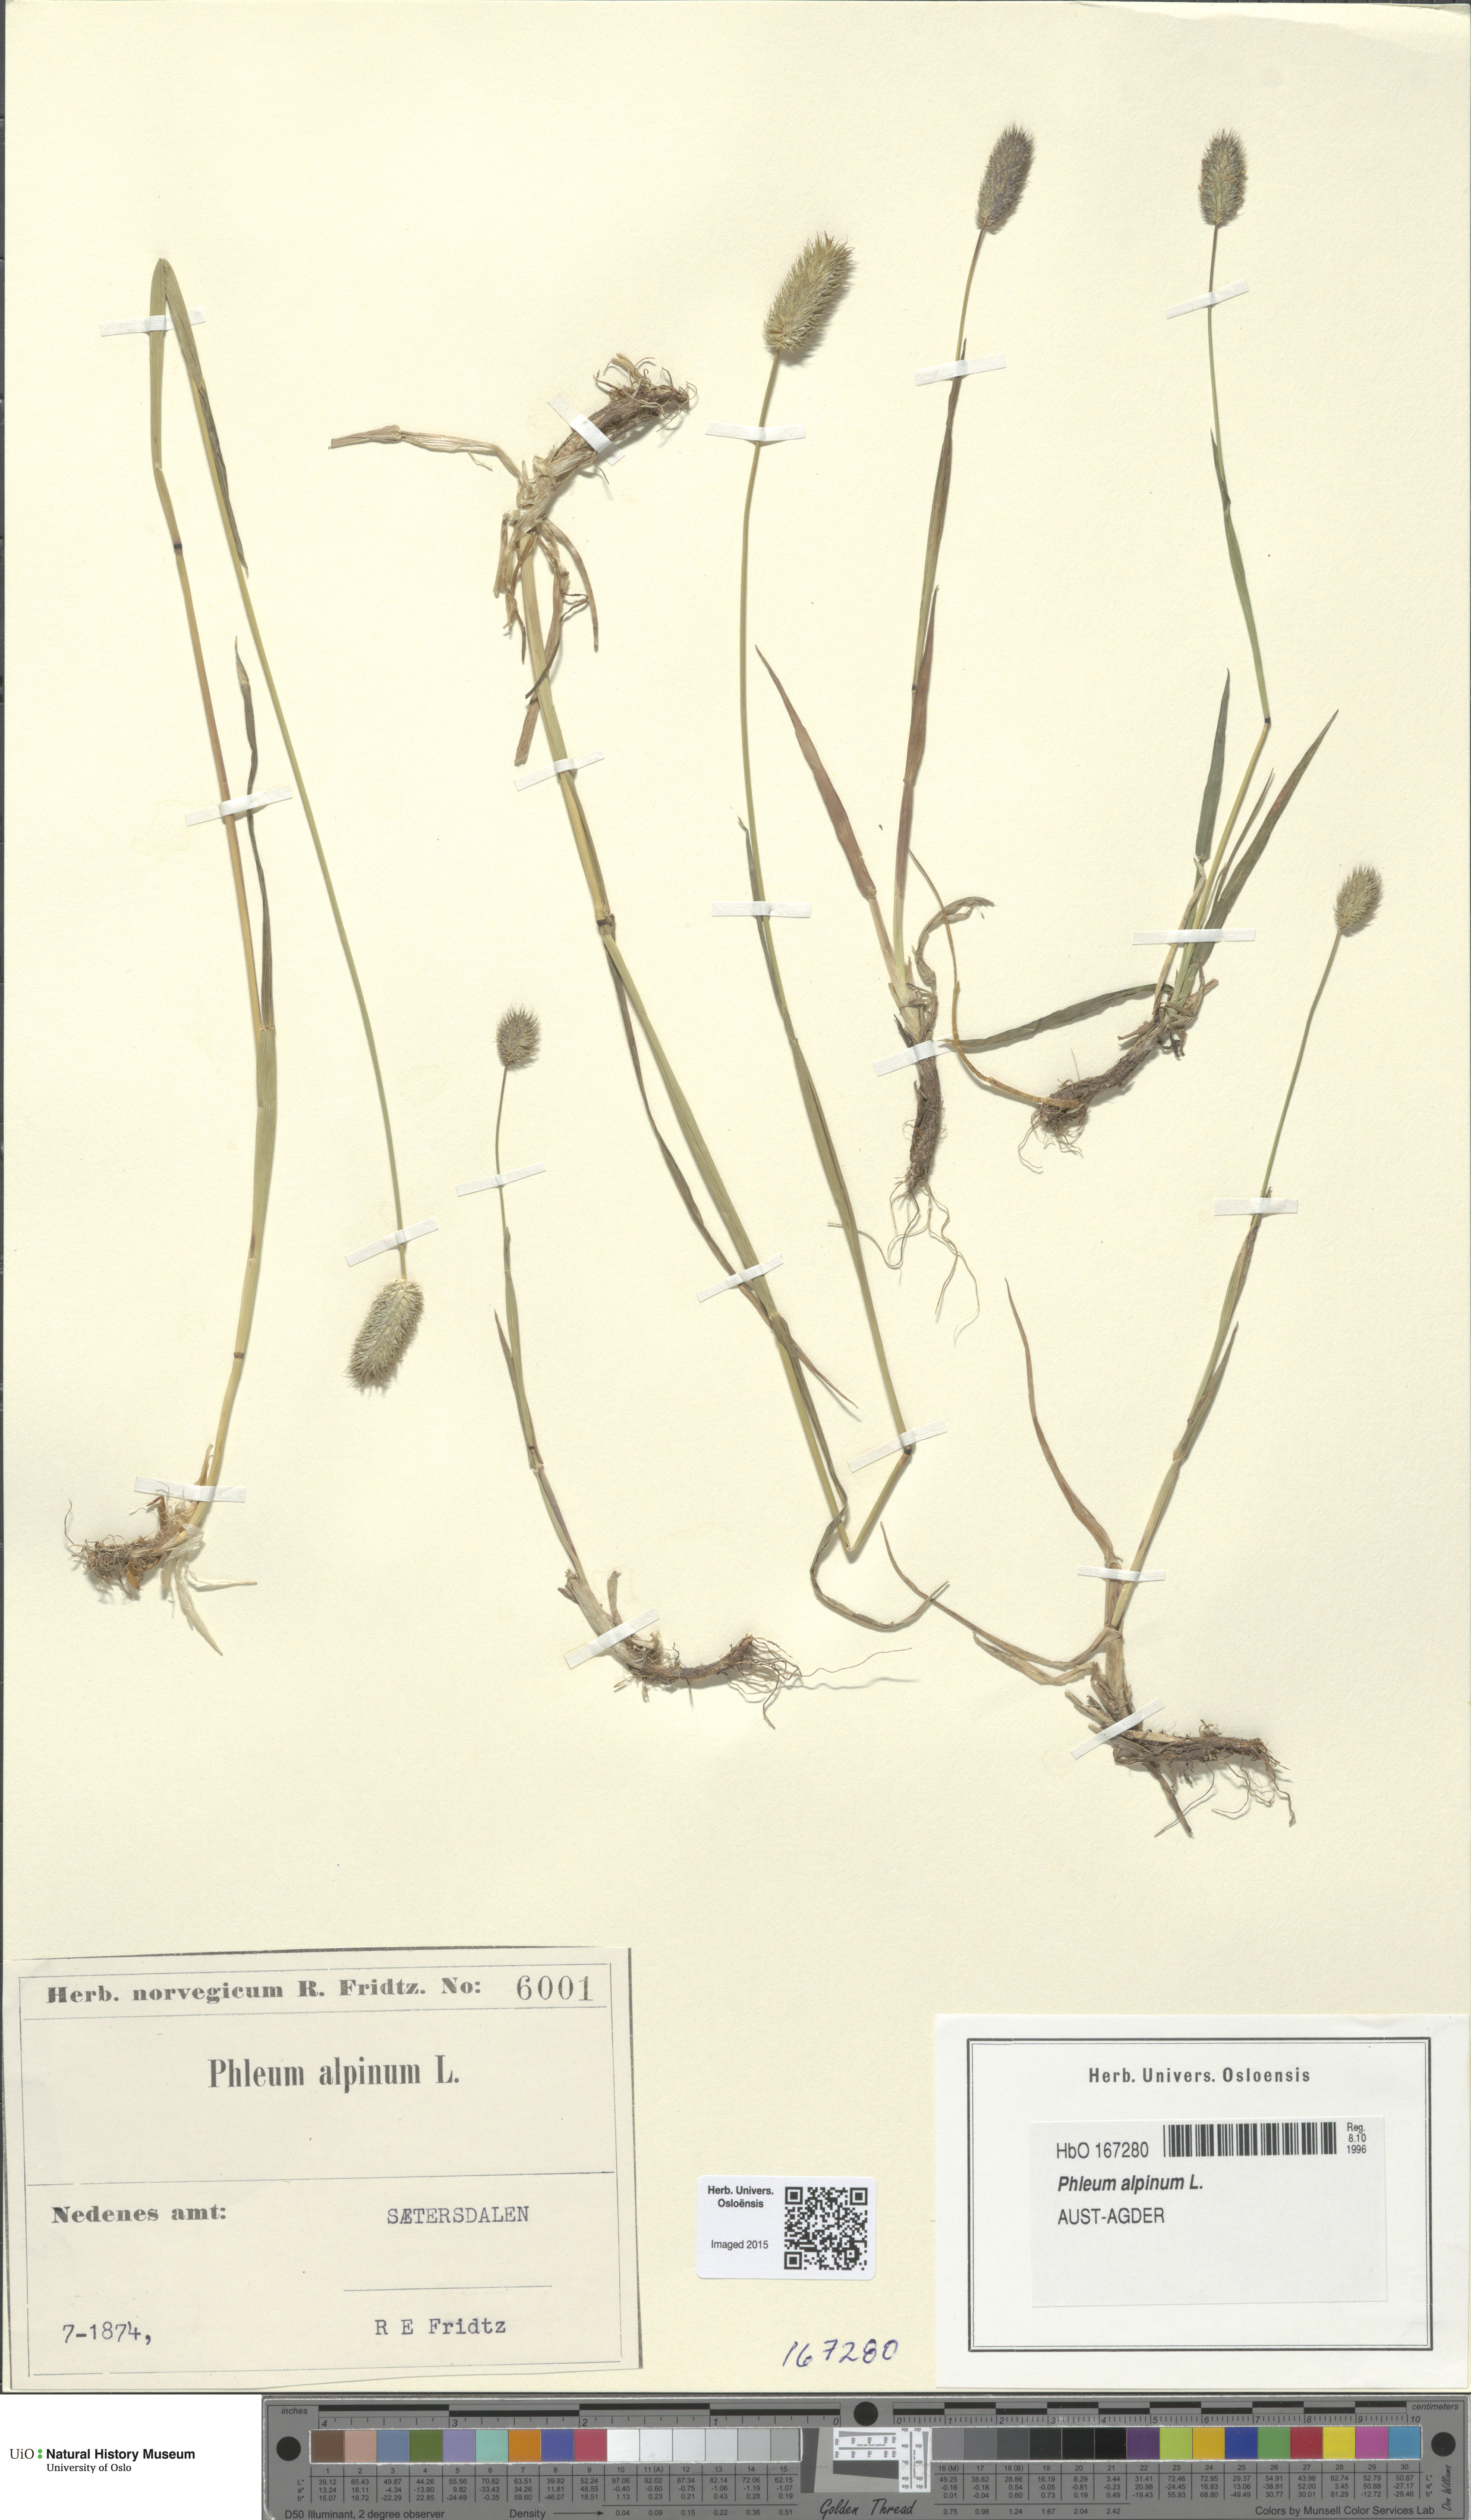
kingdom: Plantae
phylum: Tracheophyta
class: Liliopsida
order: Poales
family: Poaceae
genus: Phleum
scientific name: Phleum alpinum
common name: Alpine cat's-tail
